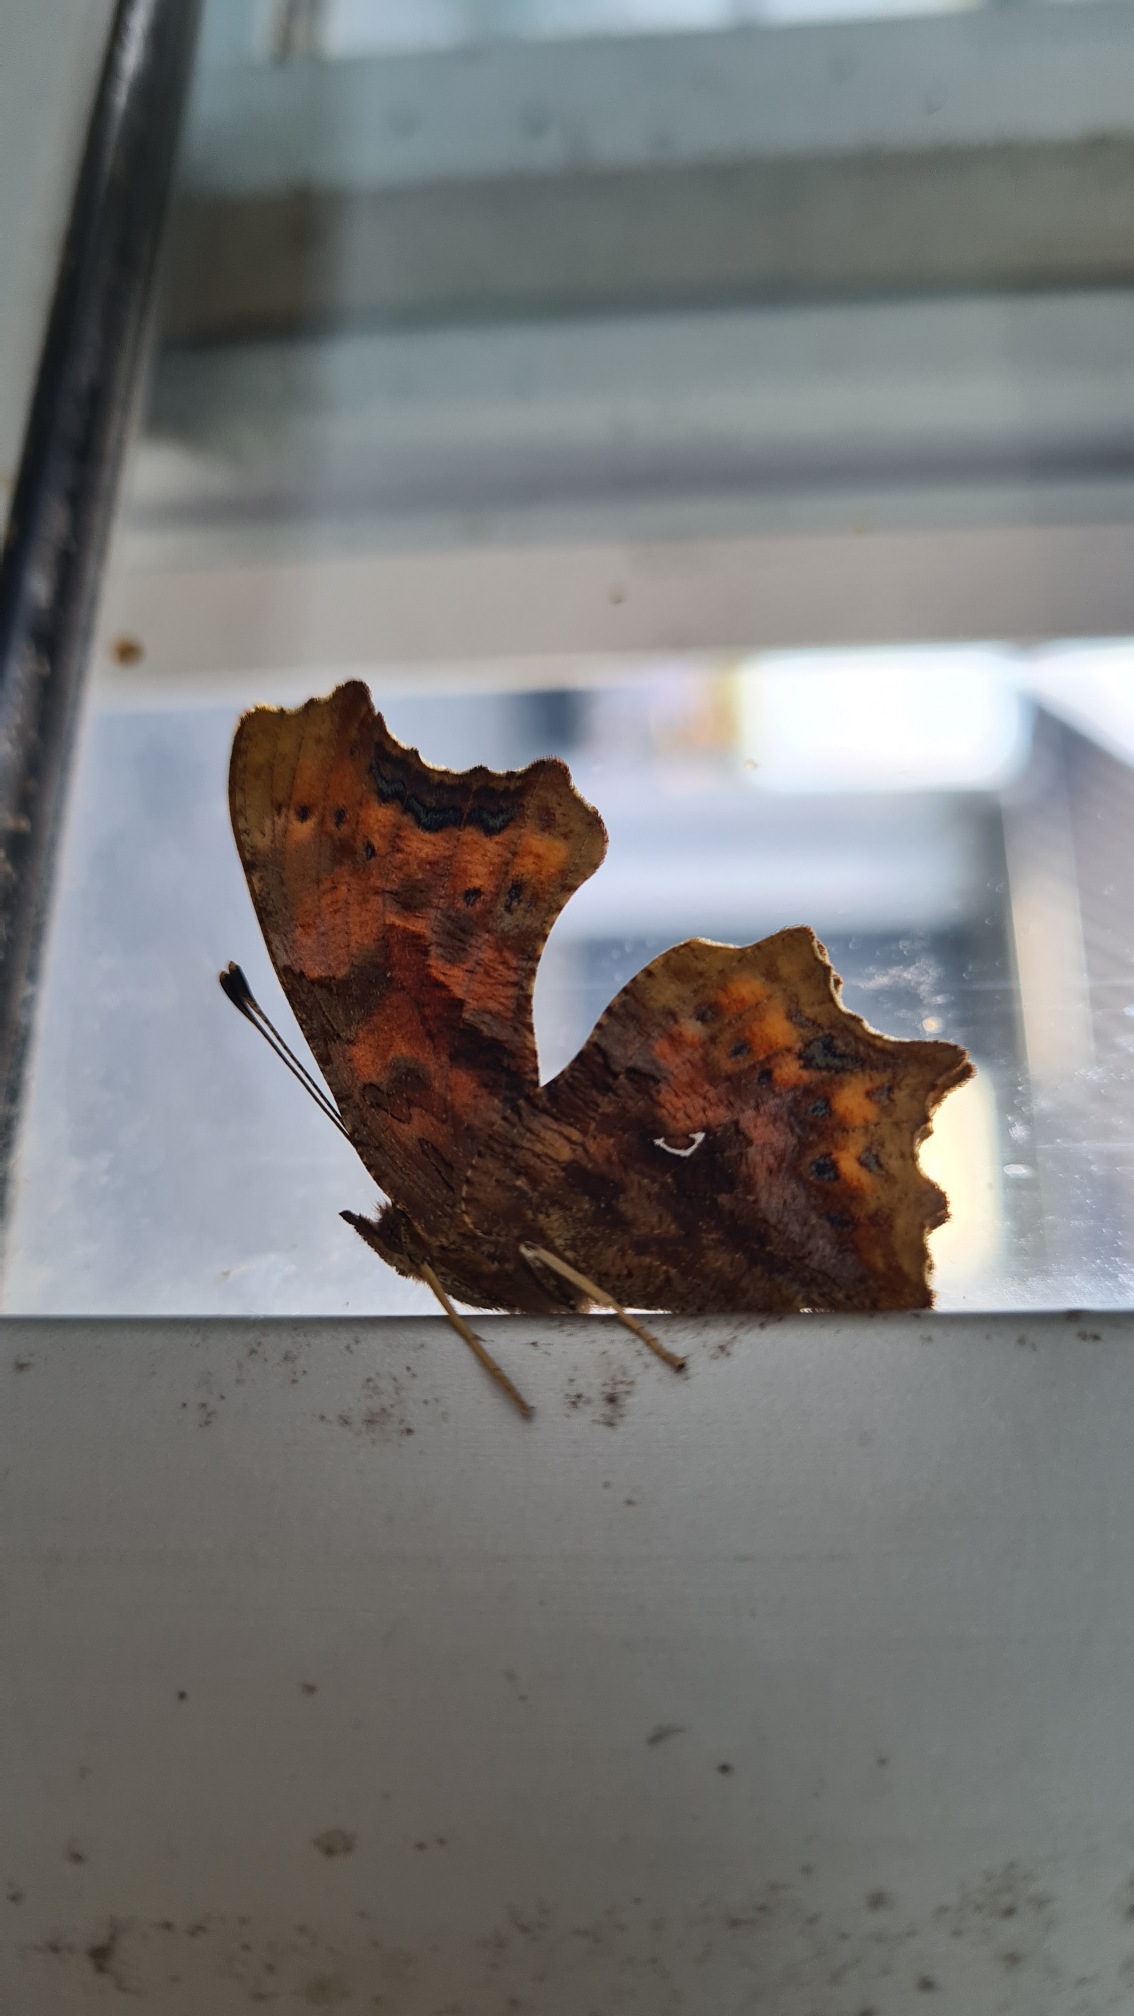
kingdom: Animalia
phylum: Arthropoda
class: Insecta
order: Lepidoptera
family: Nymphalidae
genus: Polygonia
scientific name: Polygonia c-album
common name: Det hvide C
